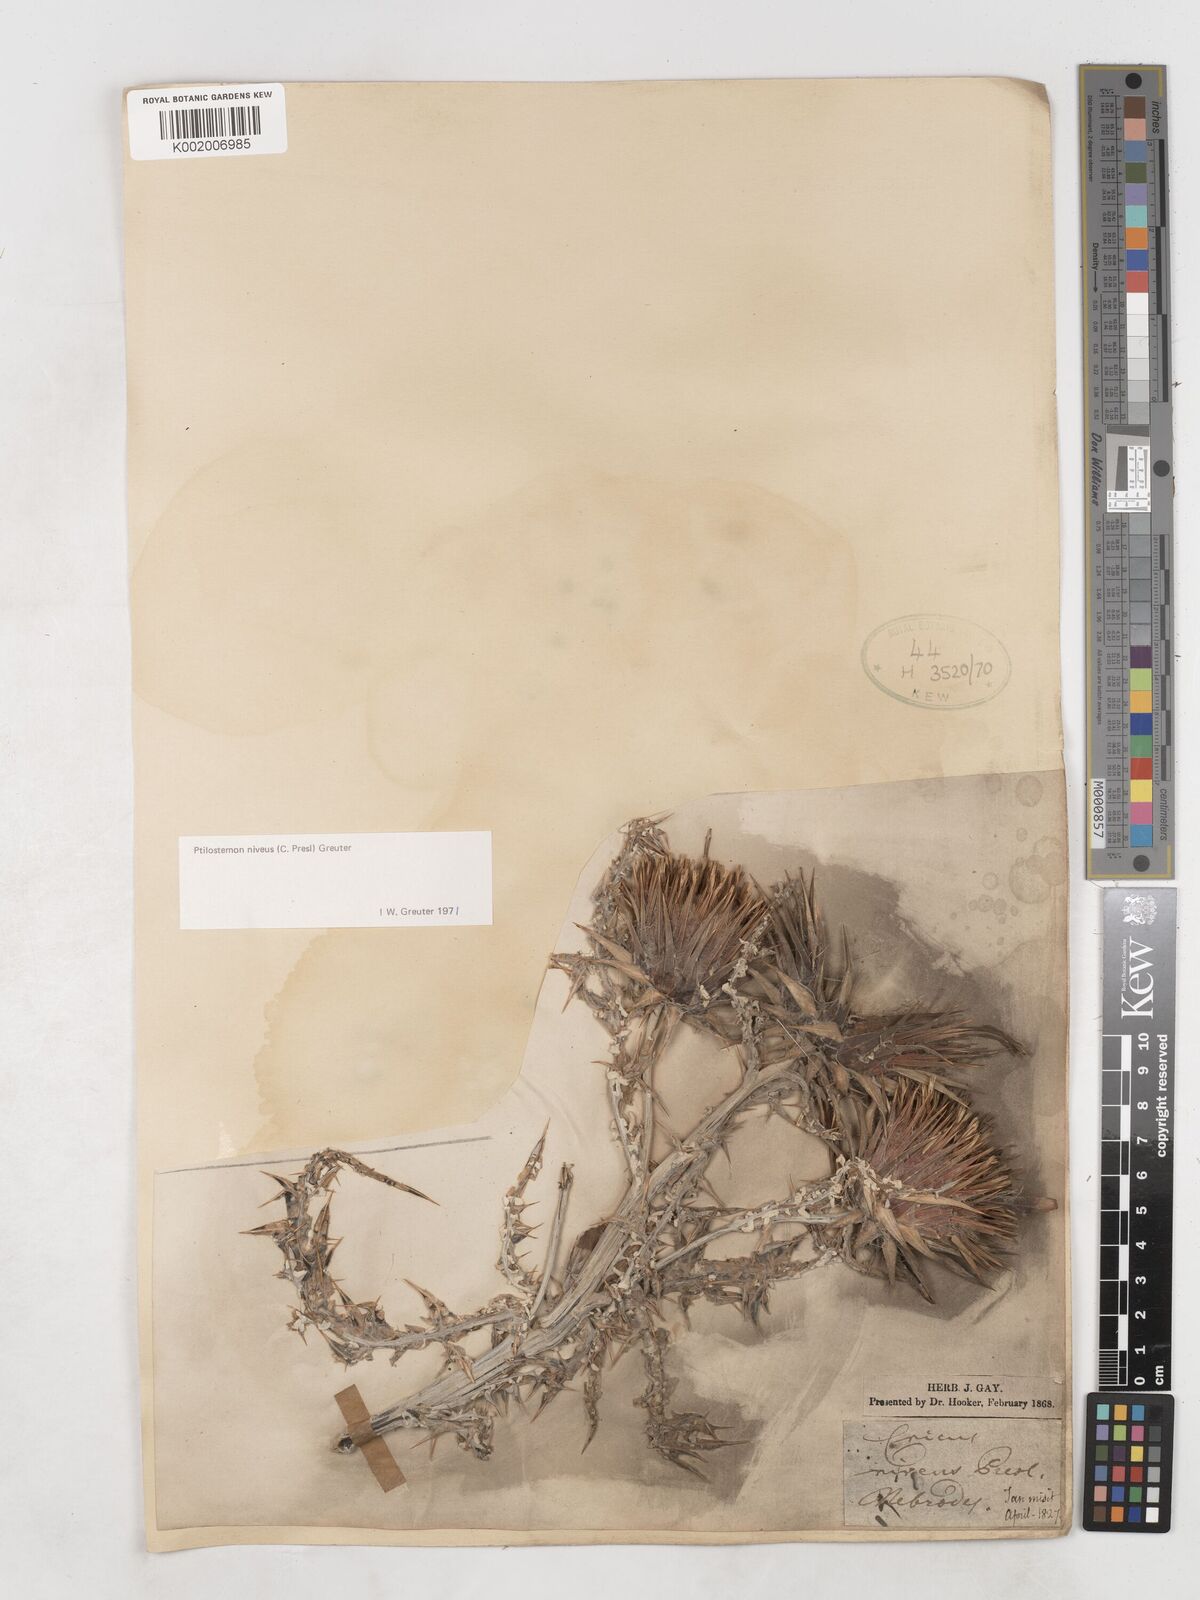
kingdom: Plantae
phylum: Tracheophyta
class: Magnoliopsida
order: Asterales
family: Asteraceae
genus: Ptilostemon
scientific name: Ptilostemon niveus
